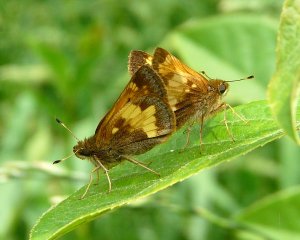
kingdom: Animalia
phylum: Arthropoda
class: Insecta
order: Lepidoptera
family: Hesperiidae
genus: Lon
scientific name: Lon hobomok
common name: Hobomok Skipper
